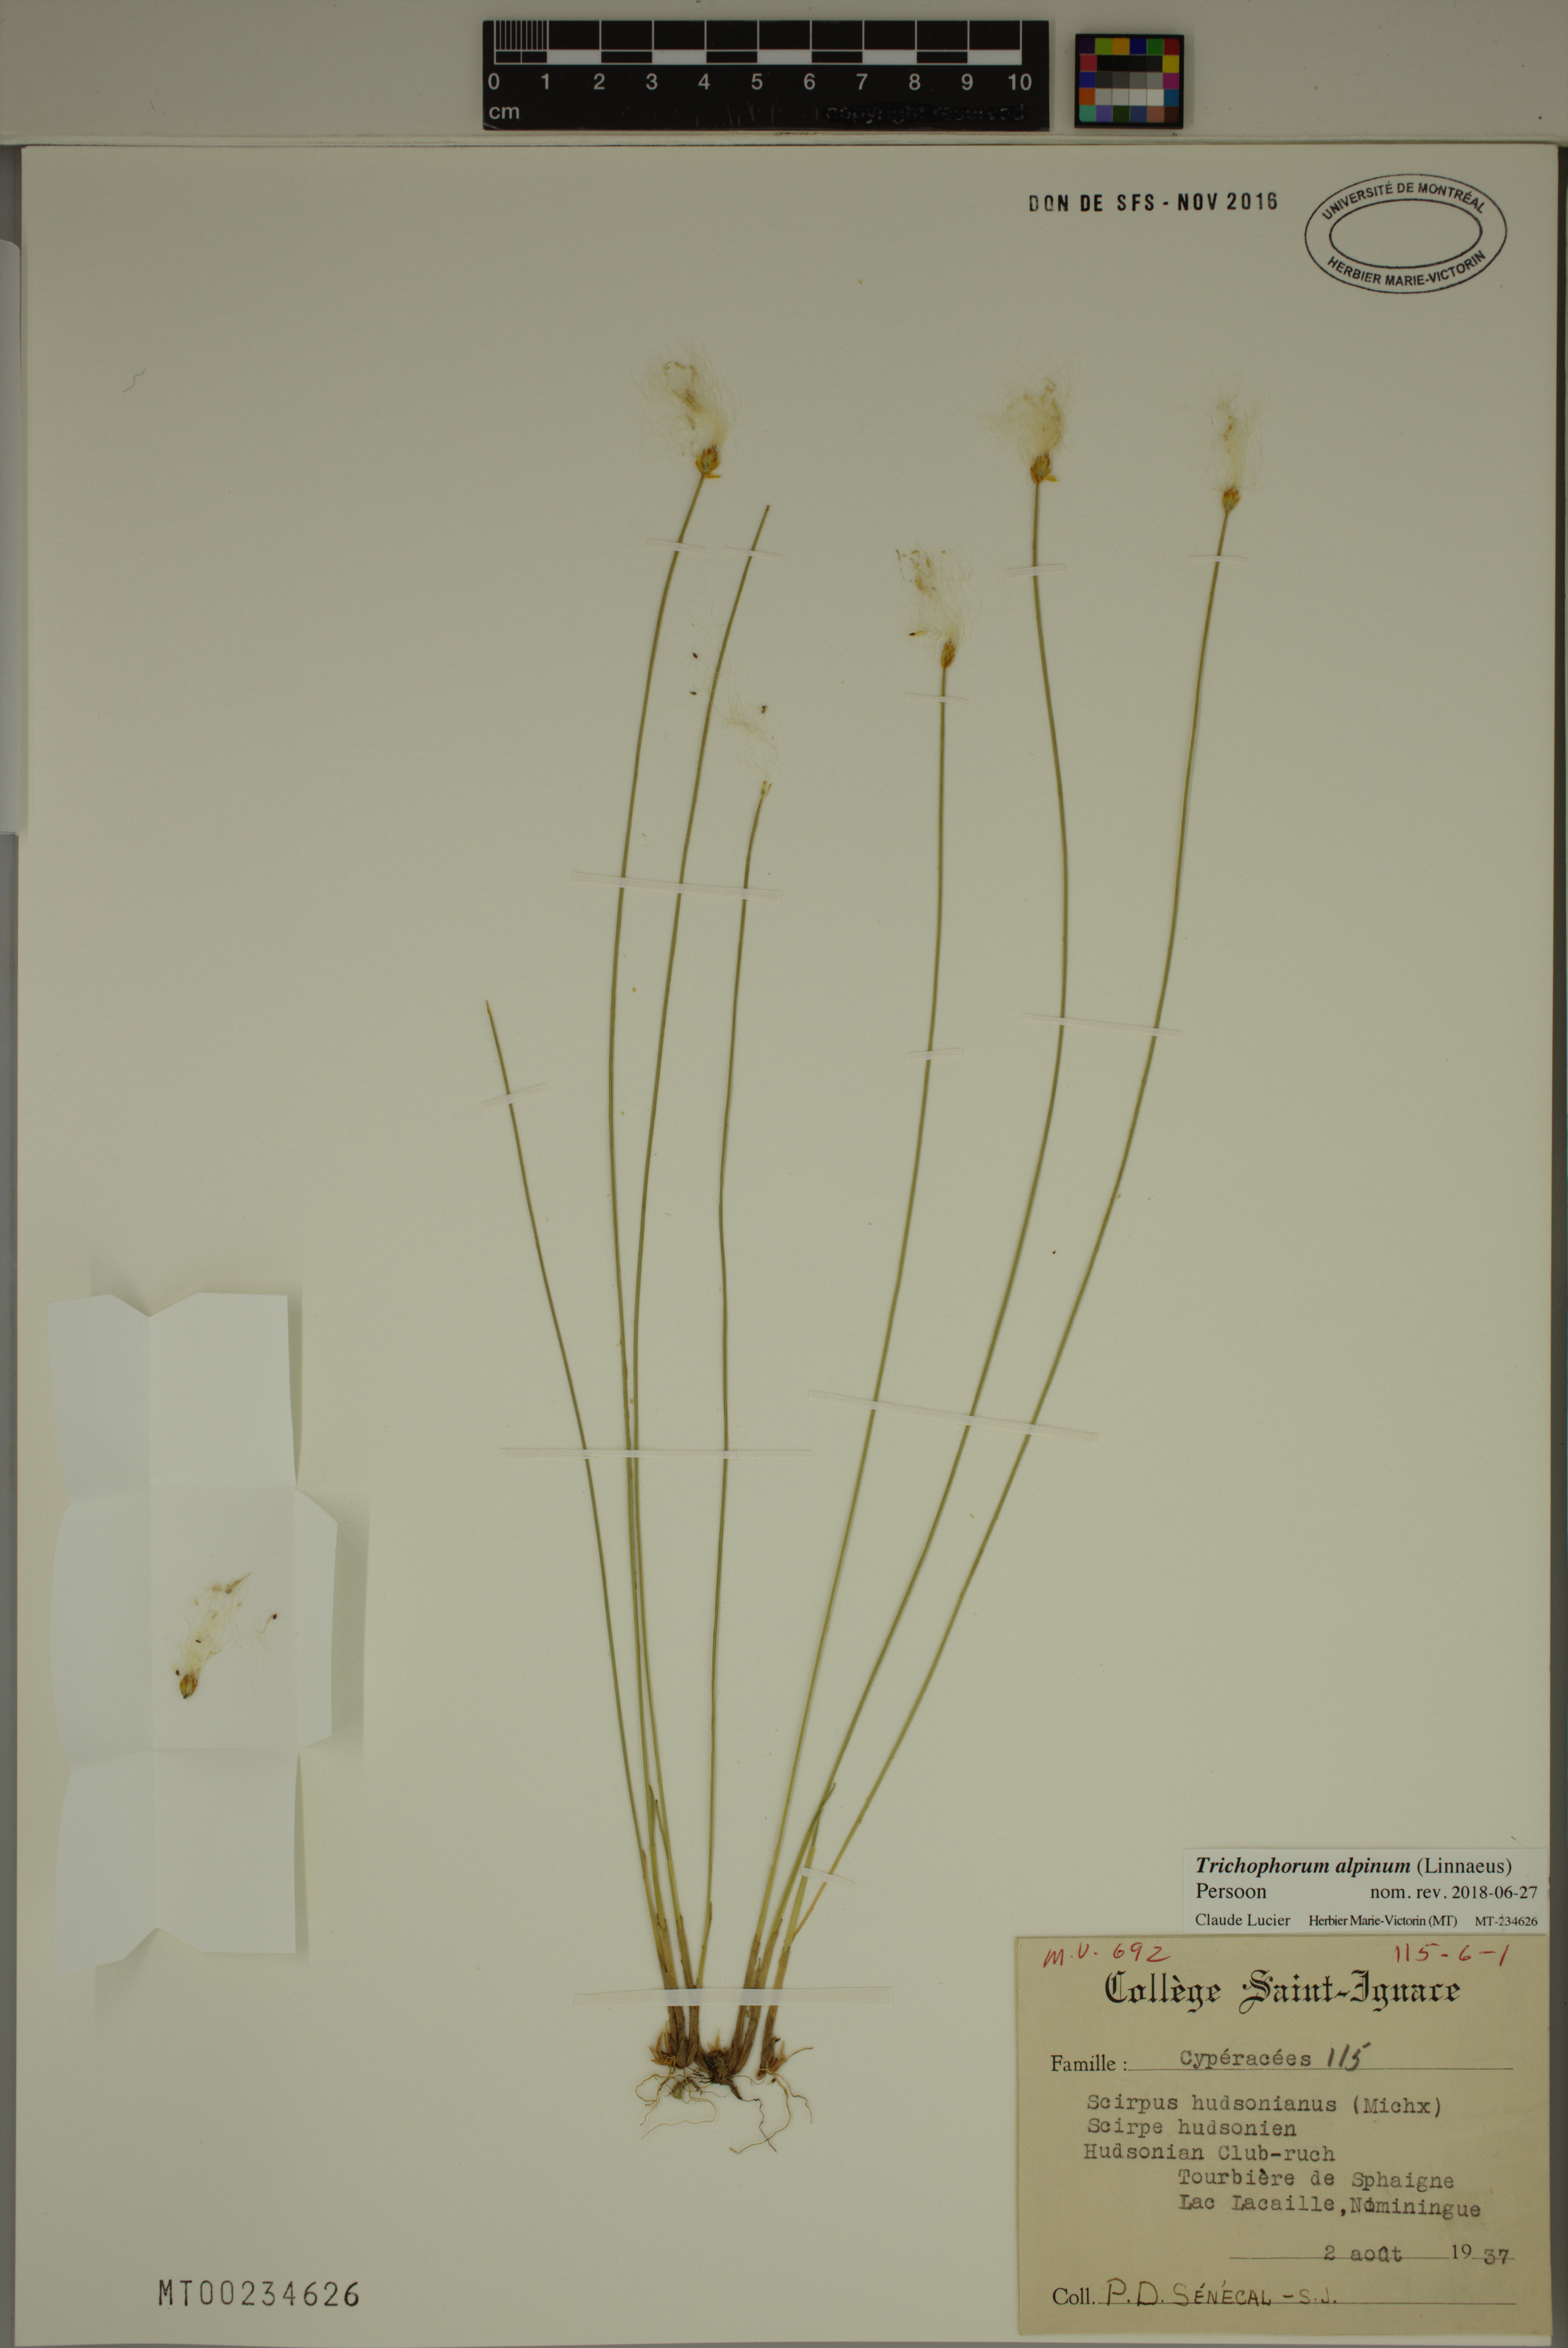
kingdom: Plantae
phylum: Tracheophyta
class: Liliopsida
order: Poales
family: Cyperaceae
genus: Trichophorum
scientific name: Trichophorum alpinum
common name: Alpine bulrush
